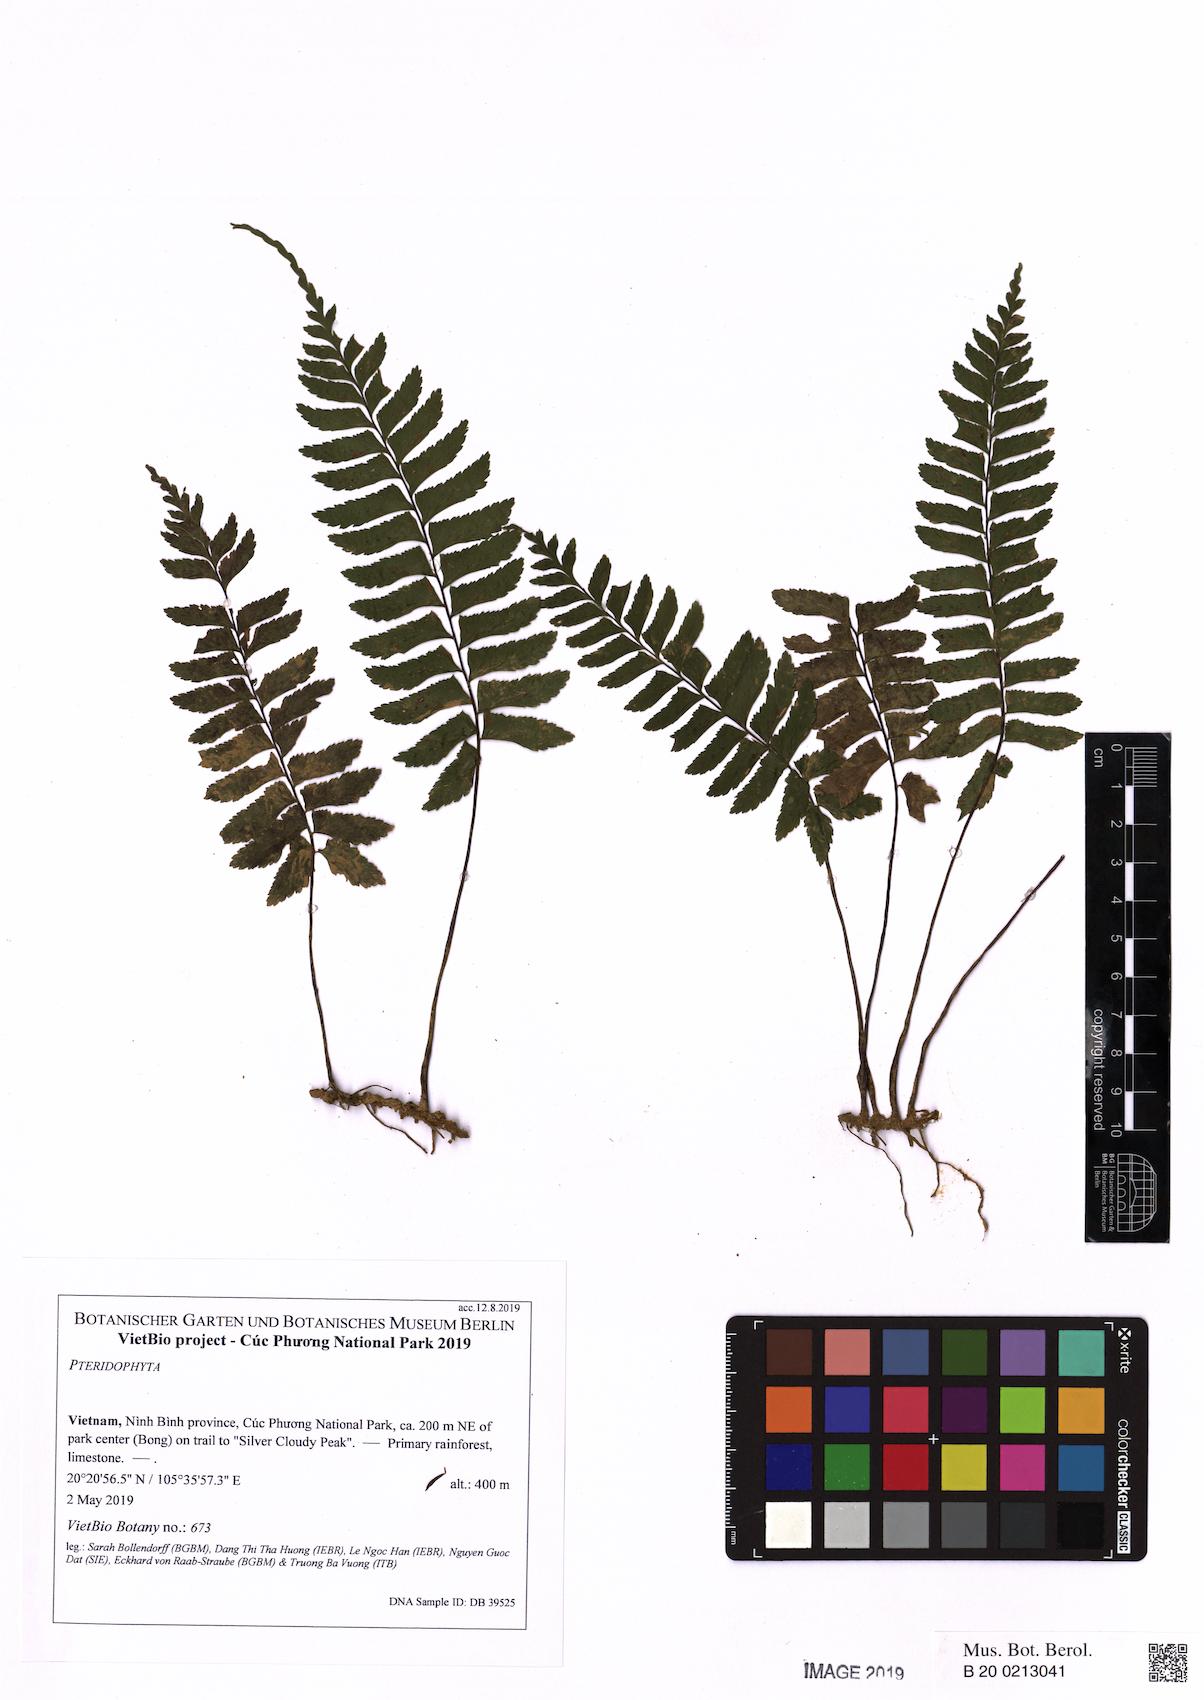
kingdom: Plantae
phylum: Tracheophyta
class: Polypodiopsida
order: Polypodiales
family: Aspleniaceae
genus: Hymenasplenium
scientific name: Hymenasplenium unilaterale
